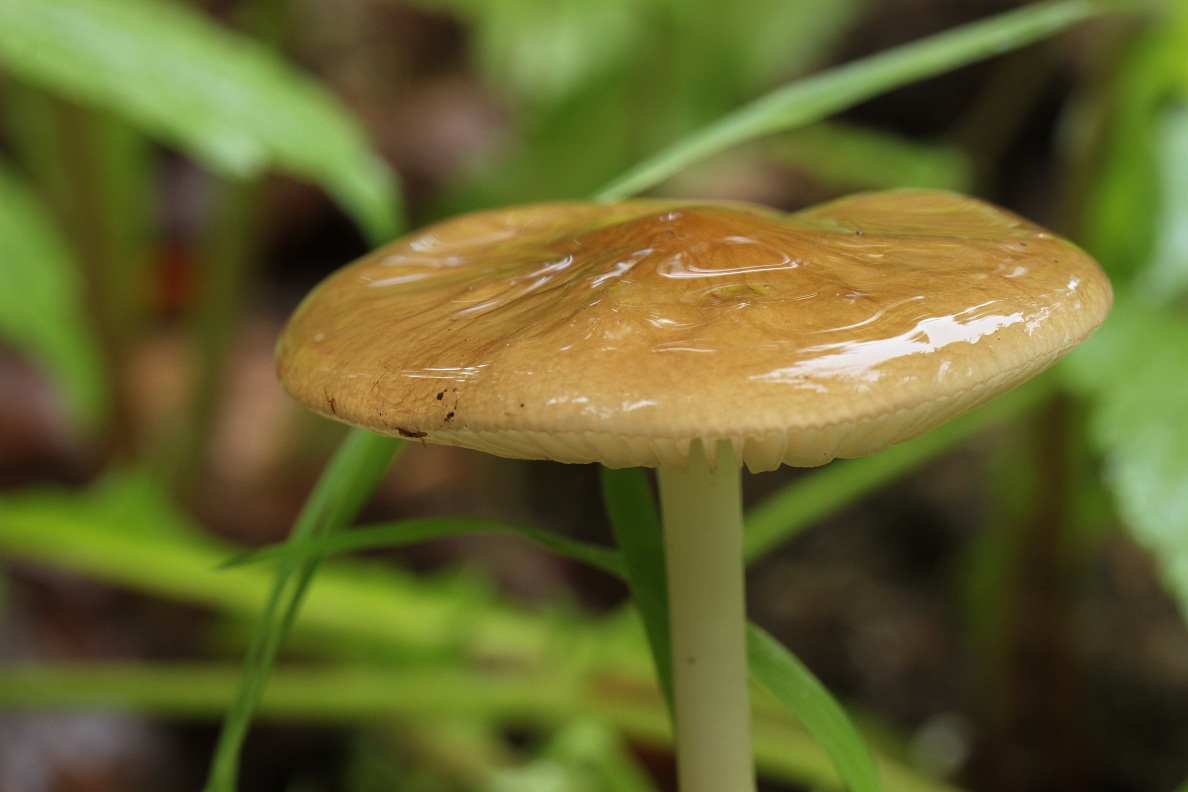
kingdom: Fungi
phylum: Basidiomycota
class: Agaricomycetes
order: Agaricales
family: Physalacriaceae
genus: Hymenopellis
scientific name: Hymenopellis radicata
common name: almindelig pælerodshat
